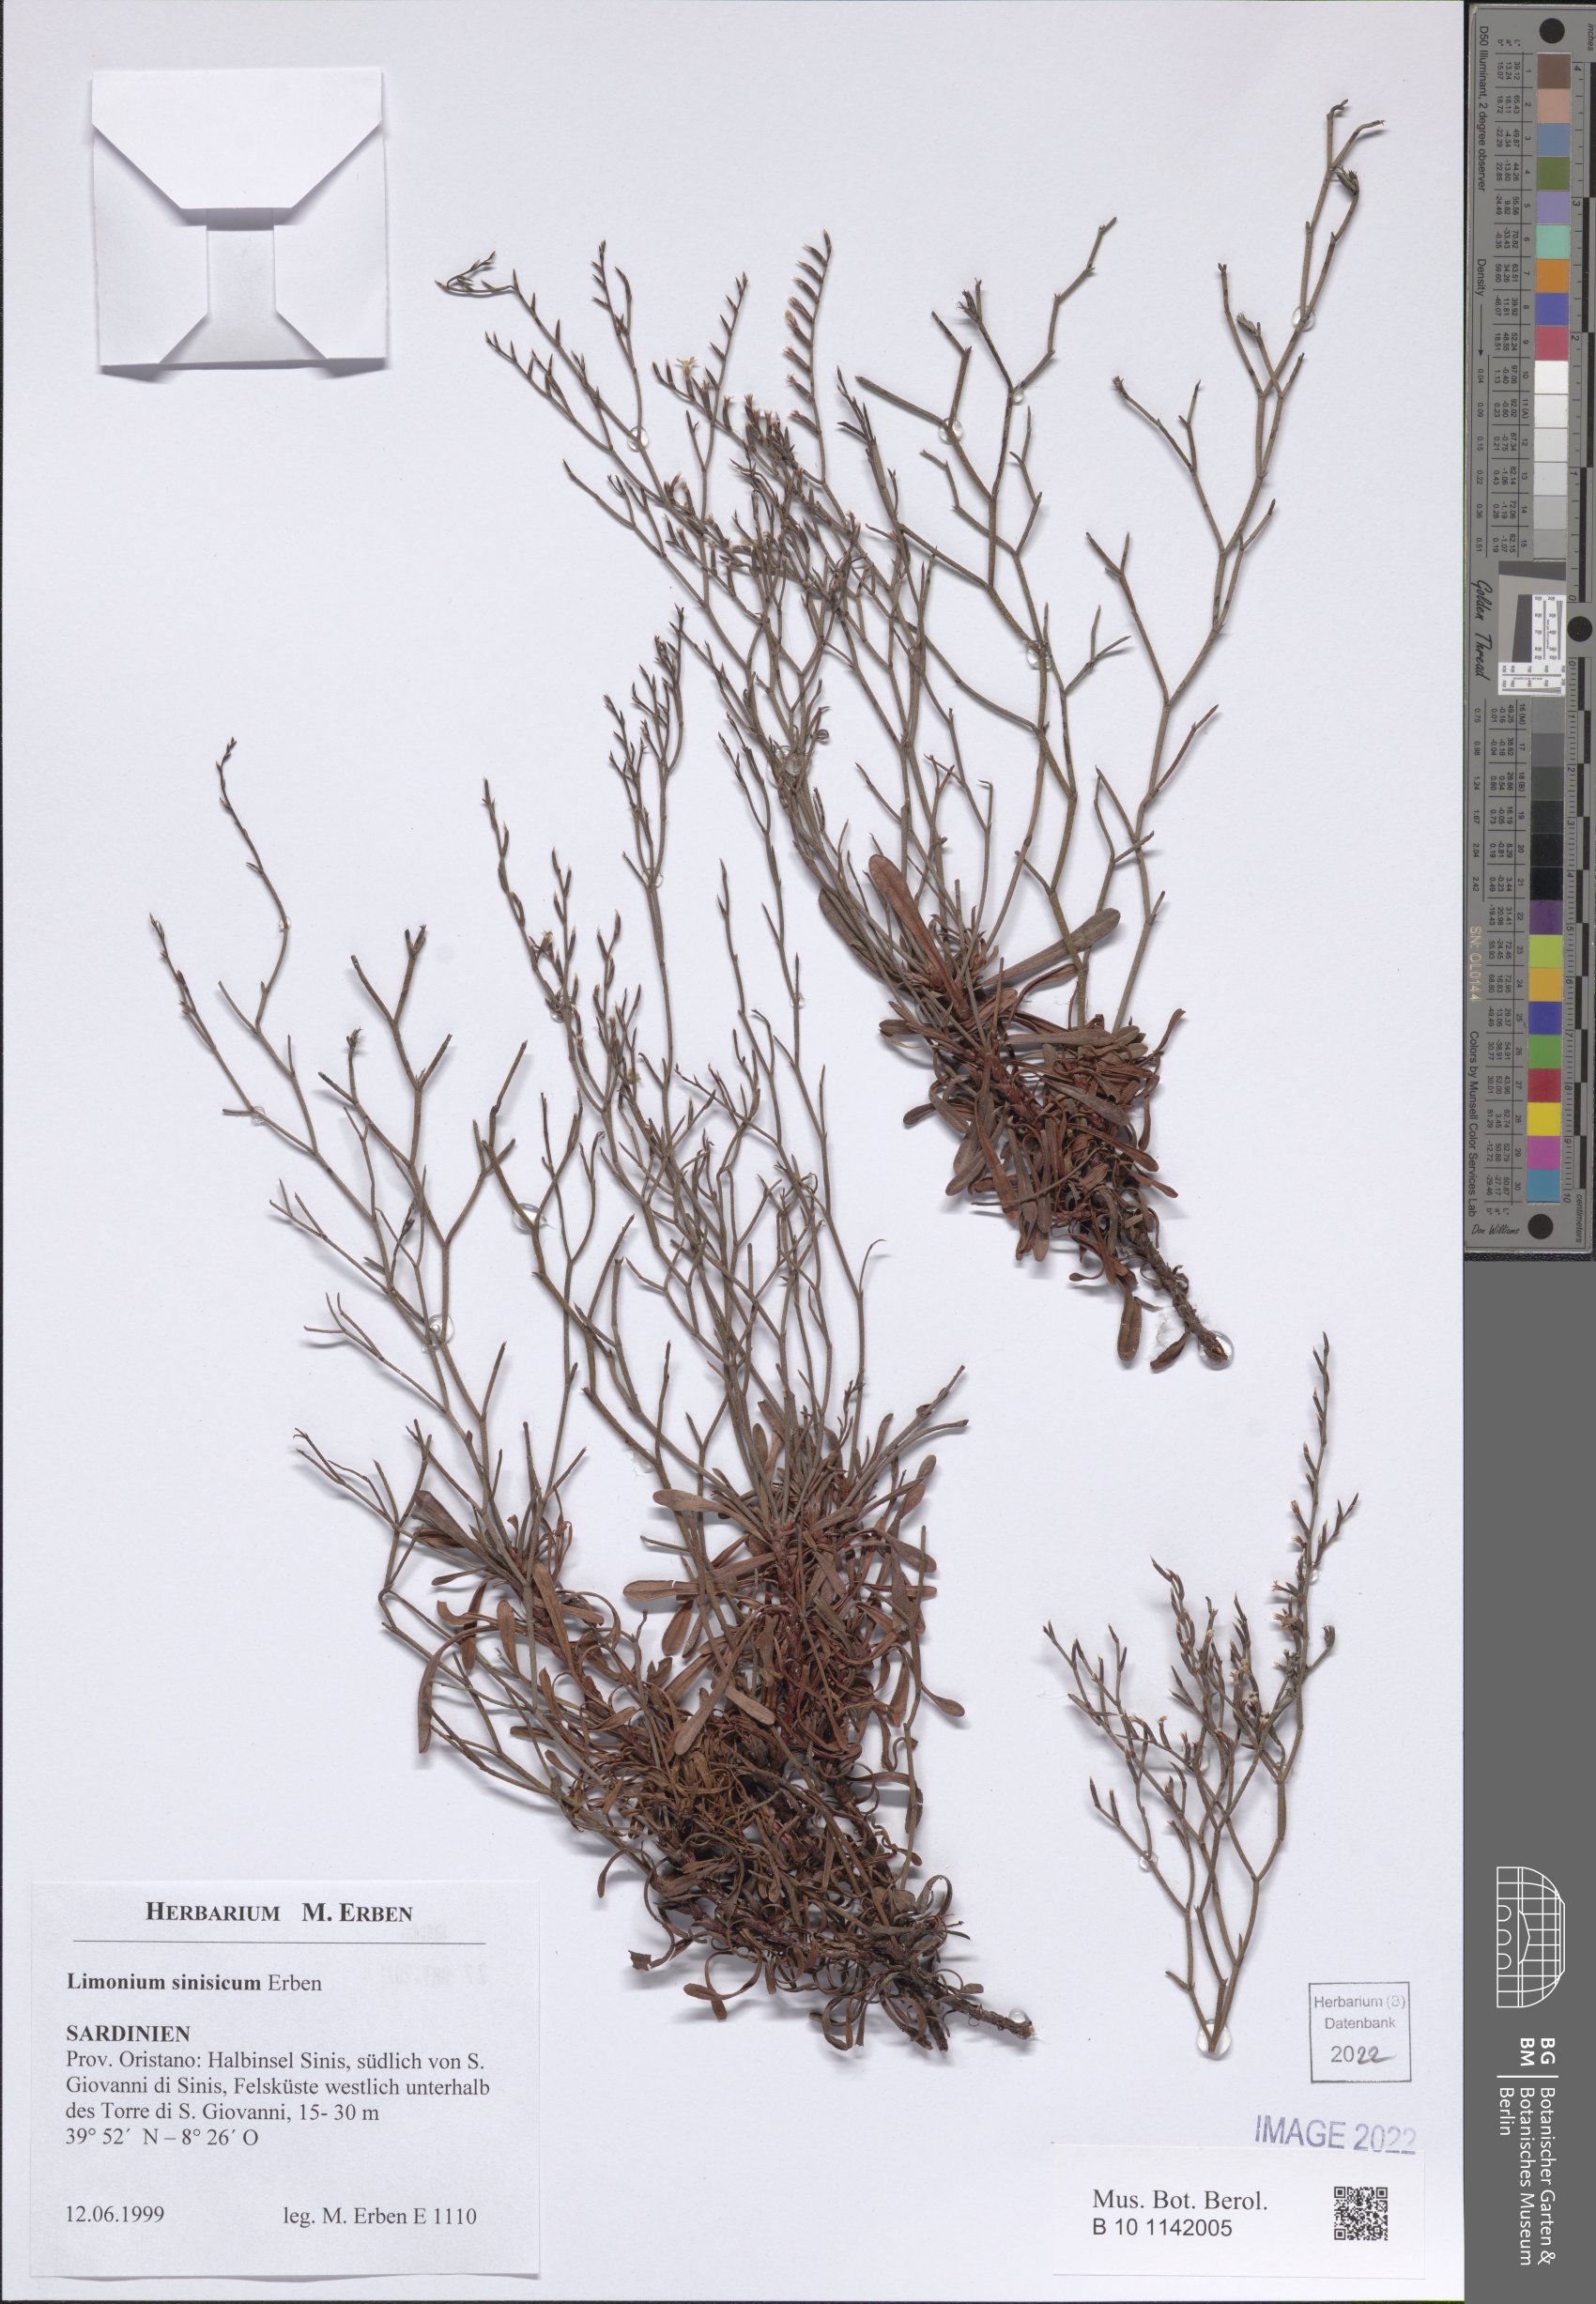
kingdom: Plantae
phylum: Tracheophyta
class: Magnoliopsida
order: Caryophyllales
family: Plumbaginaceae
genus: Limonium
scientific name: Limonium acutifolium
